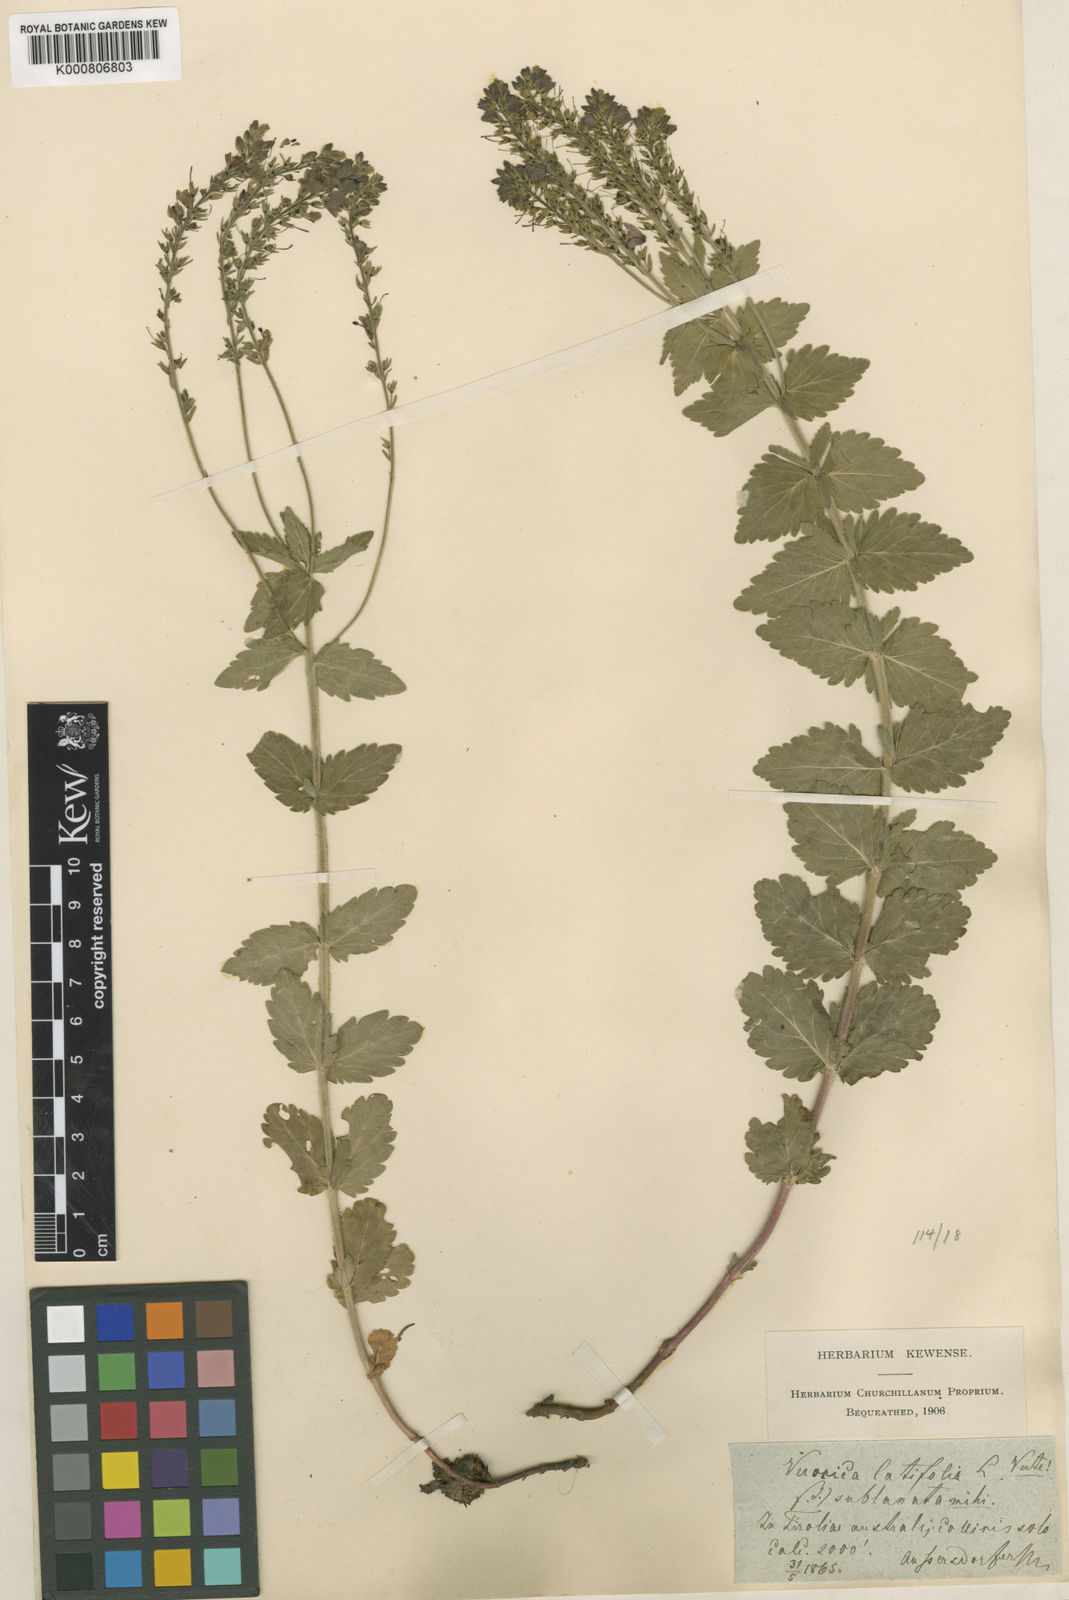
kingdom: Plantae
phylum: Tracheophyta
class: Magnoliopsida
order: Lamiales
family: Plantaginaceae
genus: Veronica
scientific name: Veronica teucrium
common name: Large speedwell
